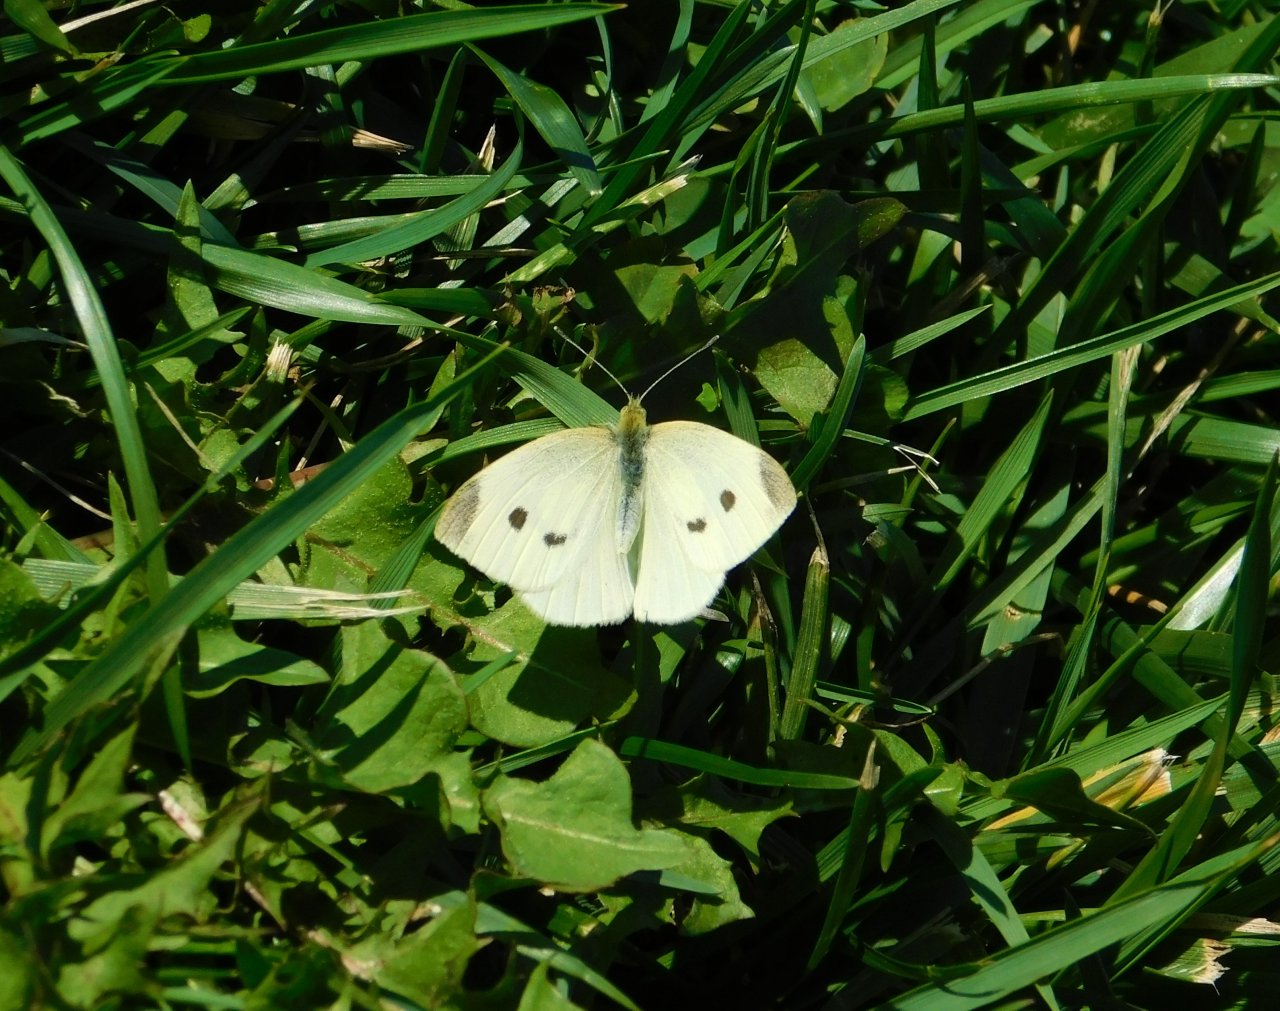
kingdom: Animalia
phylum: Arthropoda
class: Insecta
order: Lepidoptera
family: Pieridae
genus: Pieris
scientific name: Pieris rapae
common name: Cabbage White
